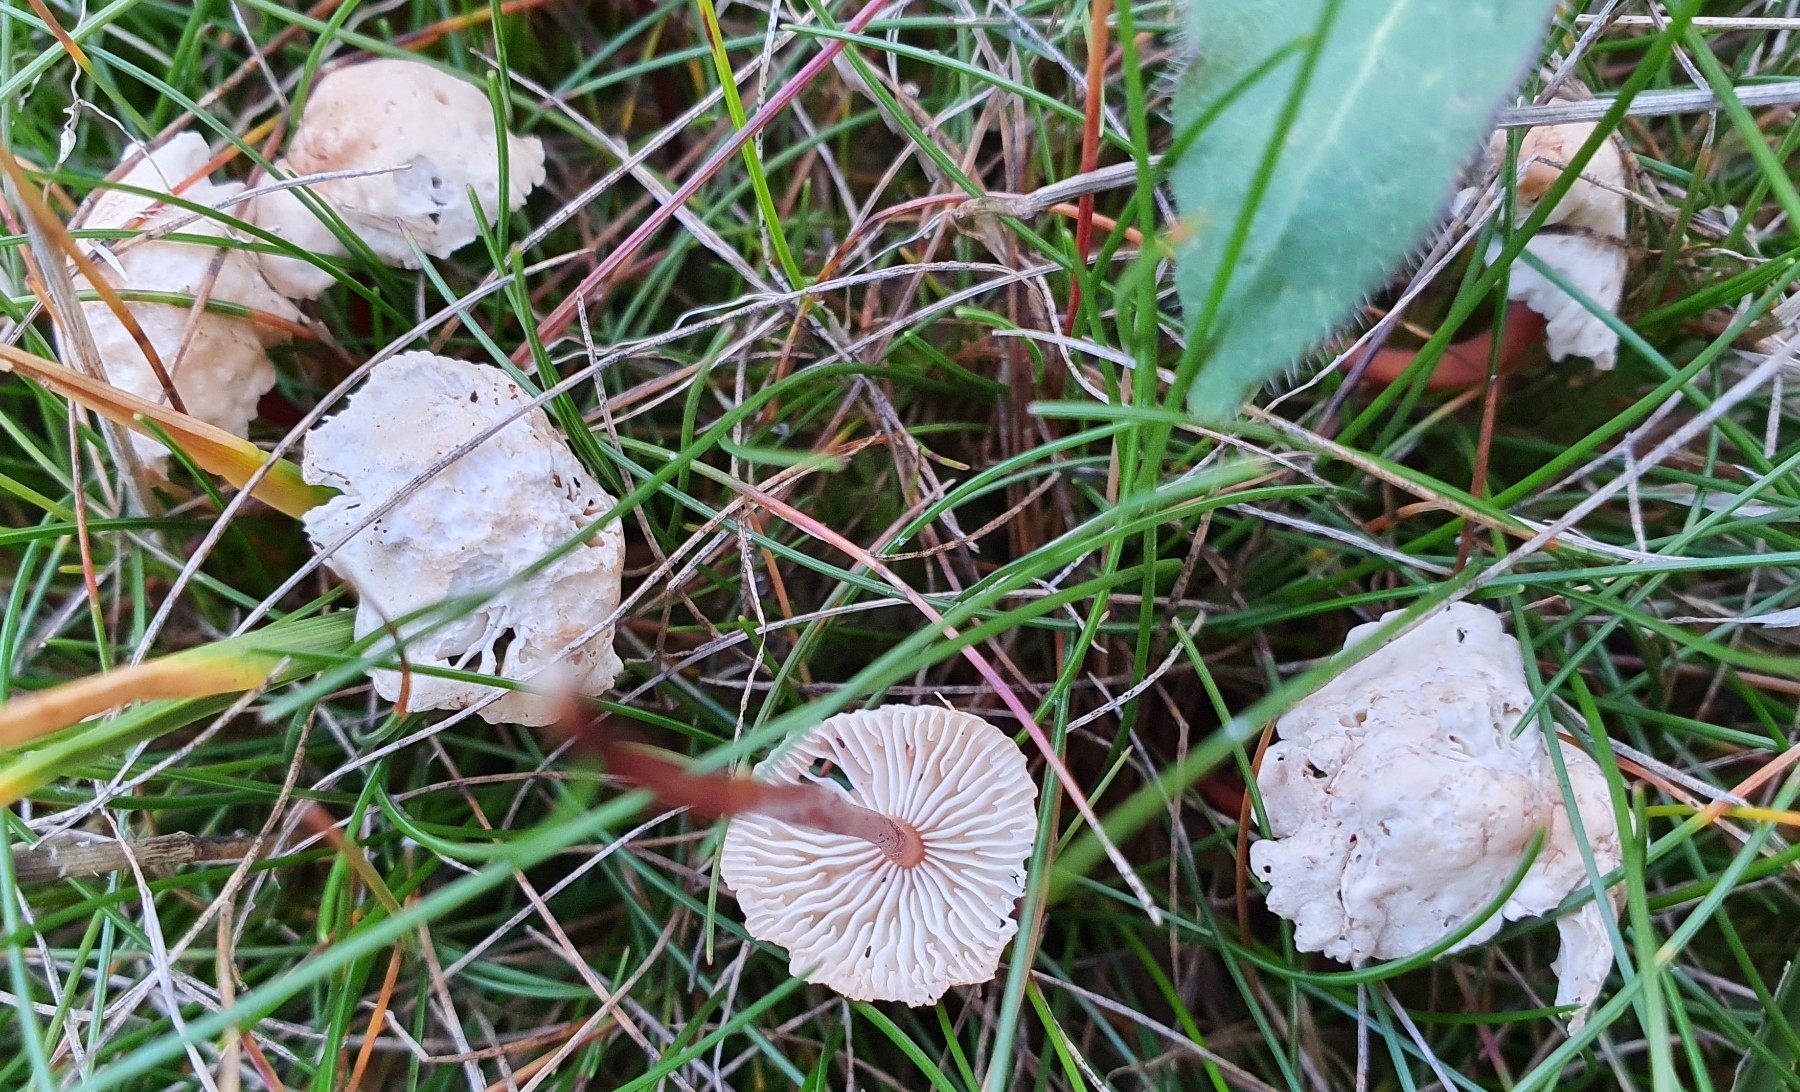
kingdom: Fungi
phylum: Basidiomycota
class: Agaricomycetes
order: Agaricales
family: Omphalotaceae
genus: Mycetinis
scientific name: Mycetinis scorodonius
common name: lille løghat
